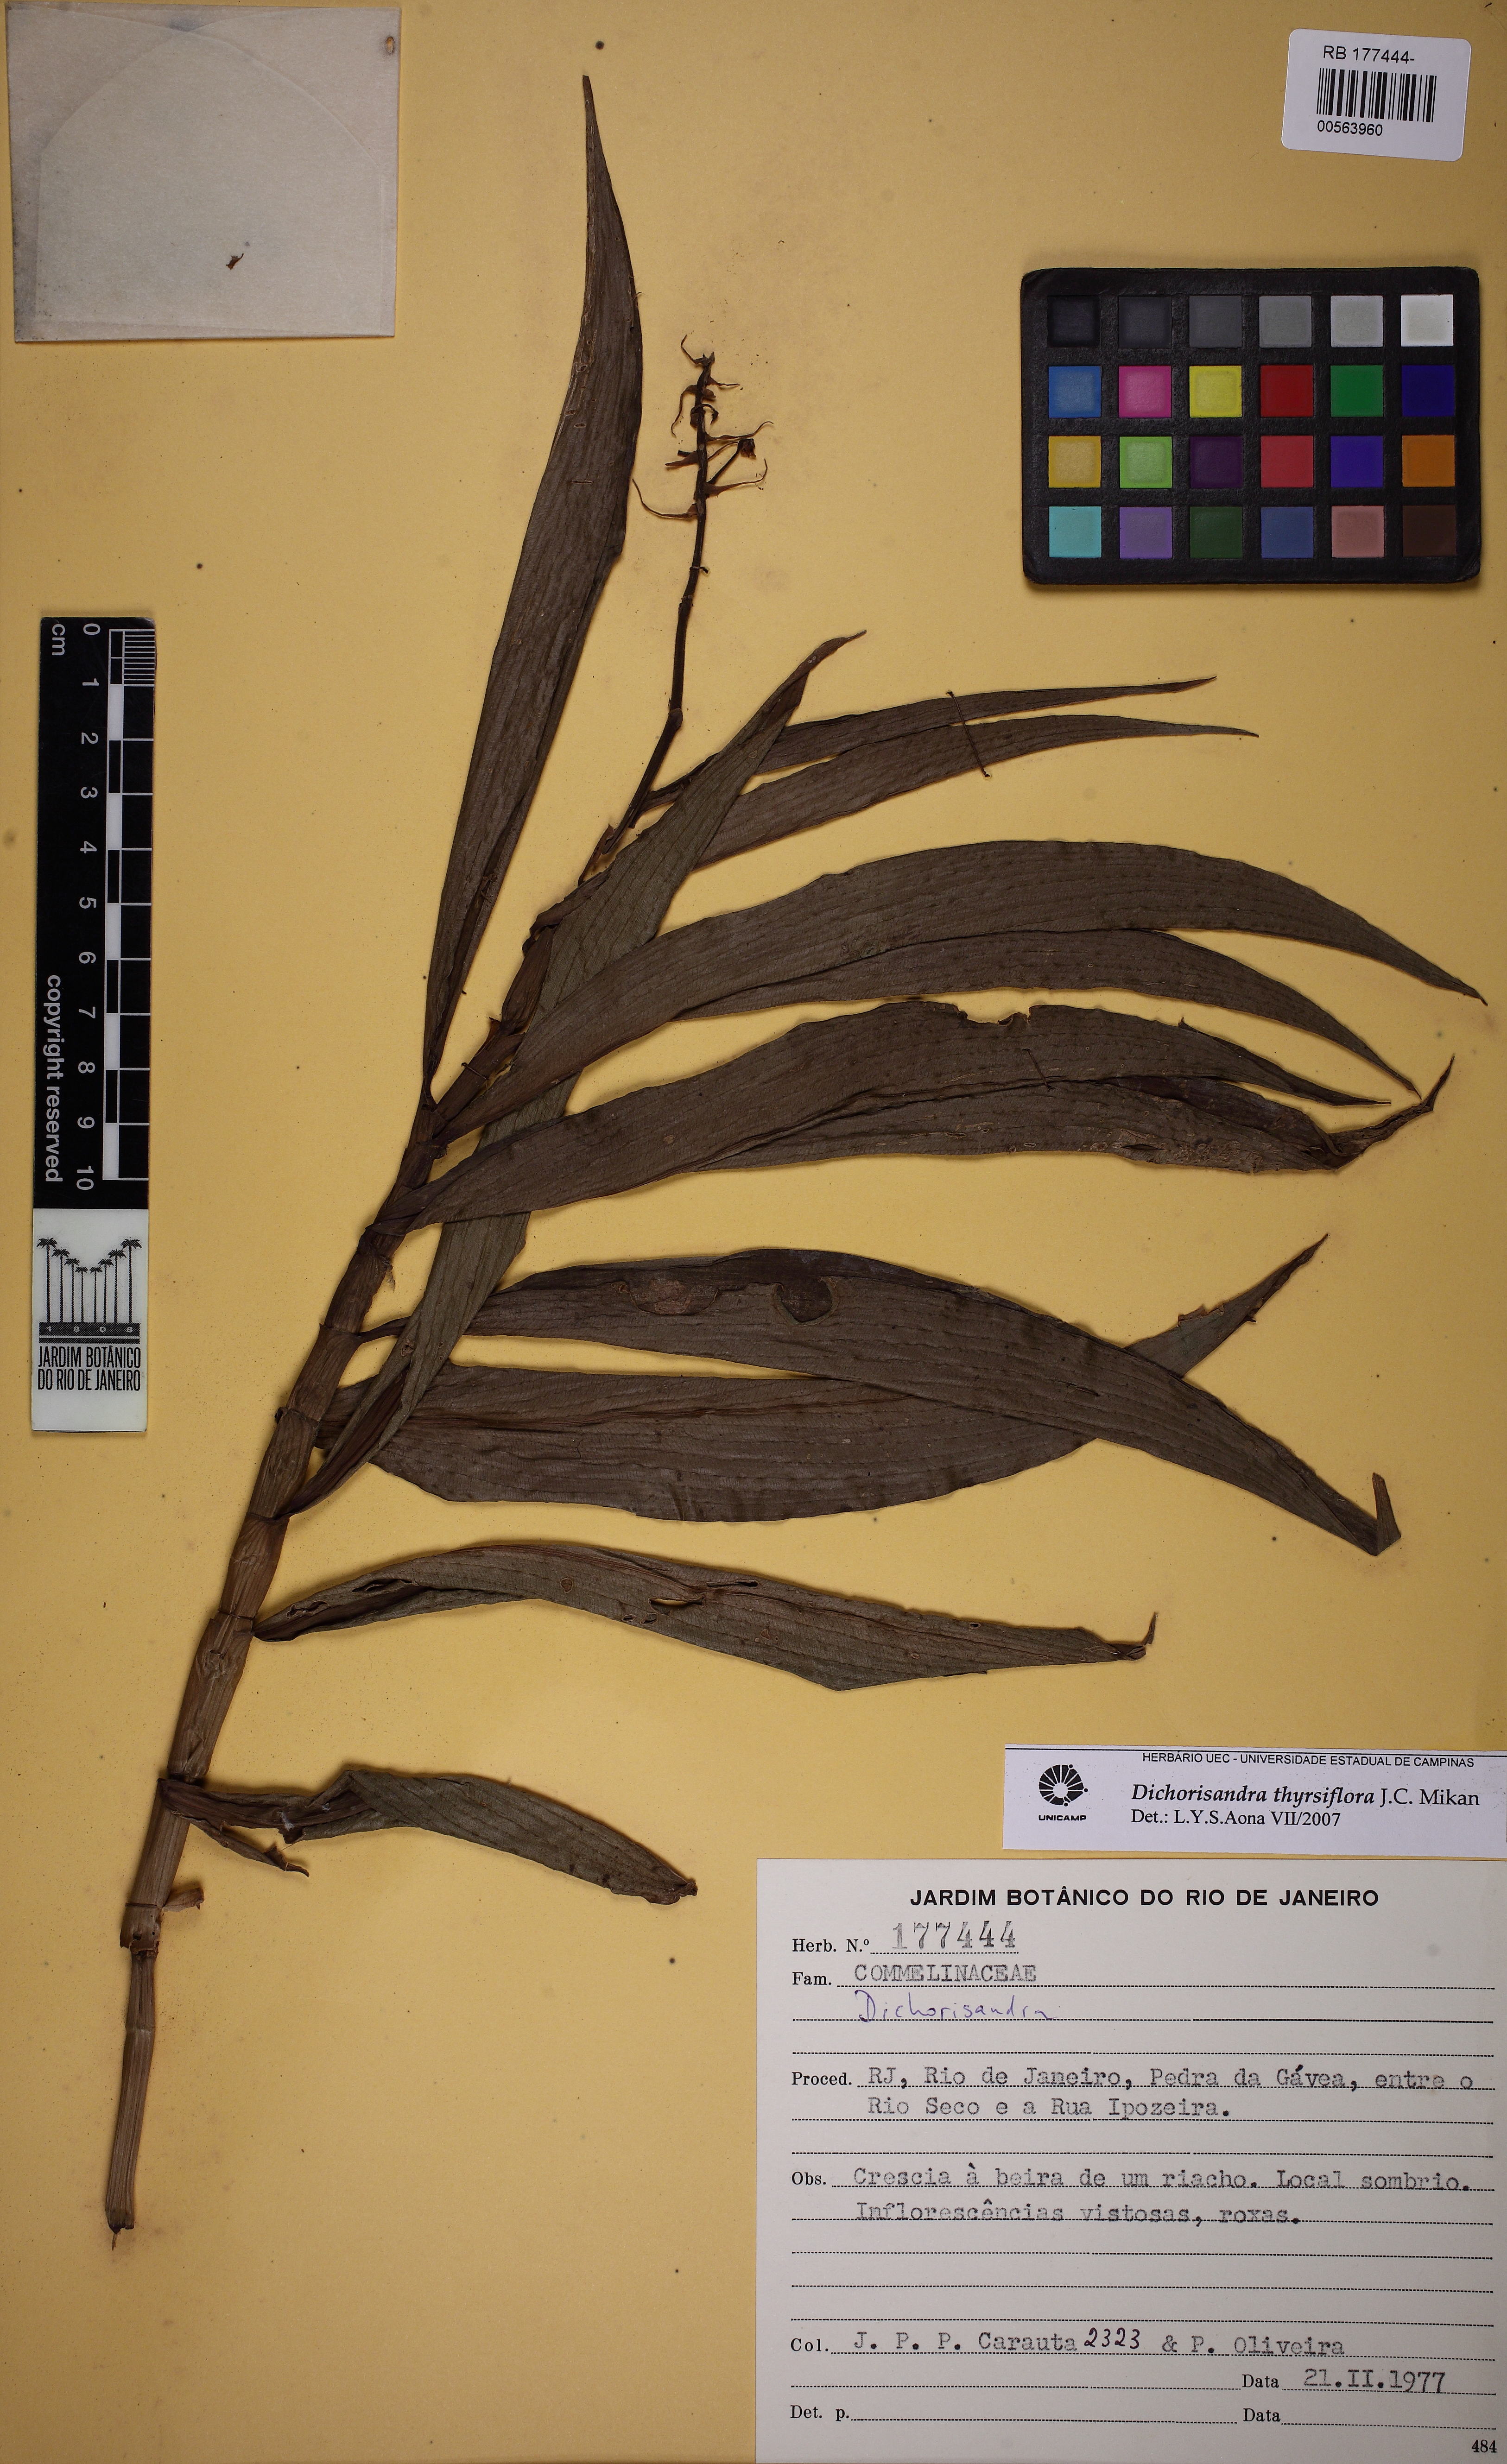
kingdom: Plantae
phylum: Tracheophyta
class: Liliopsida
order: Commelinales
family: Commelinaceae
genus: Dichorisandra
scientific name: Dichorisandra thyrsiflora
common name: Blue-ginger
